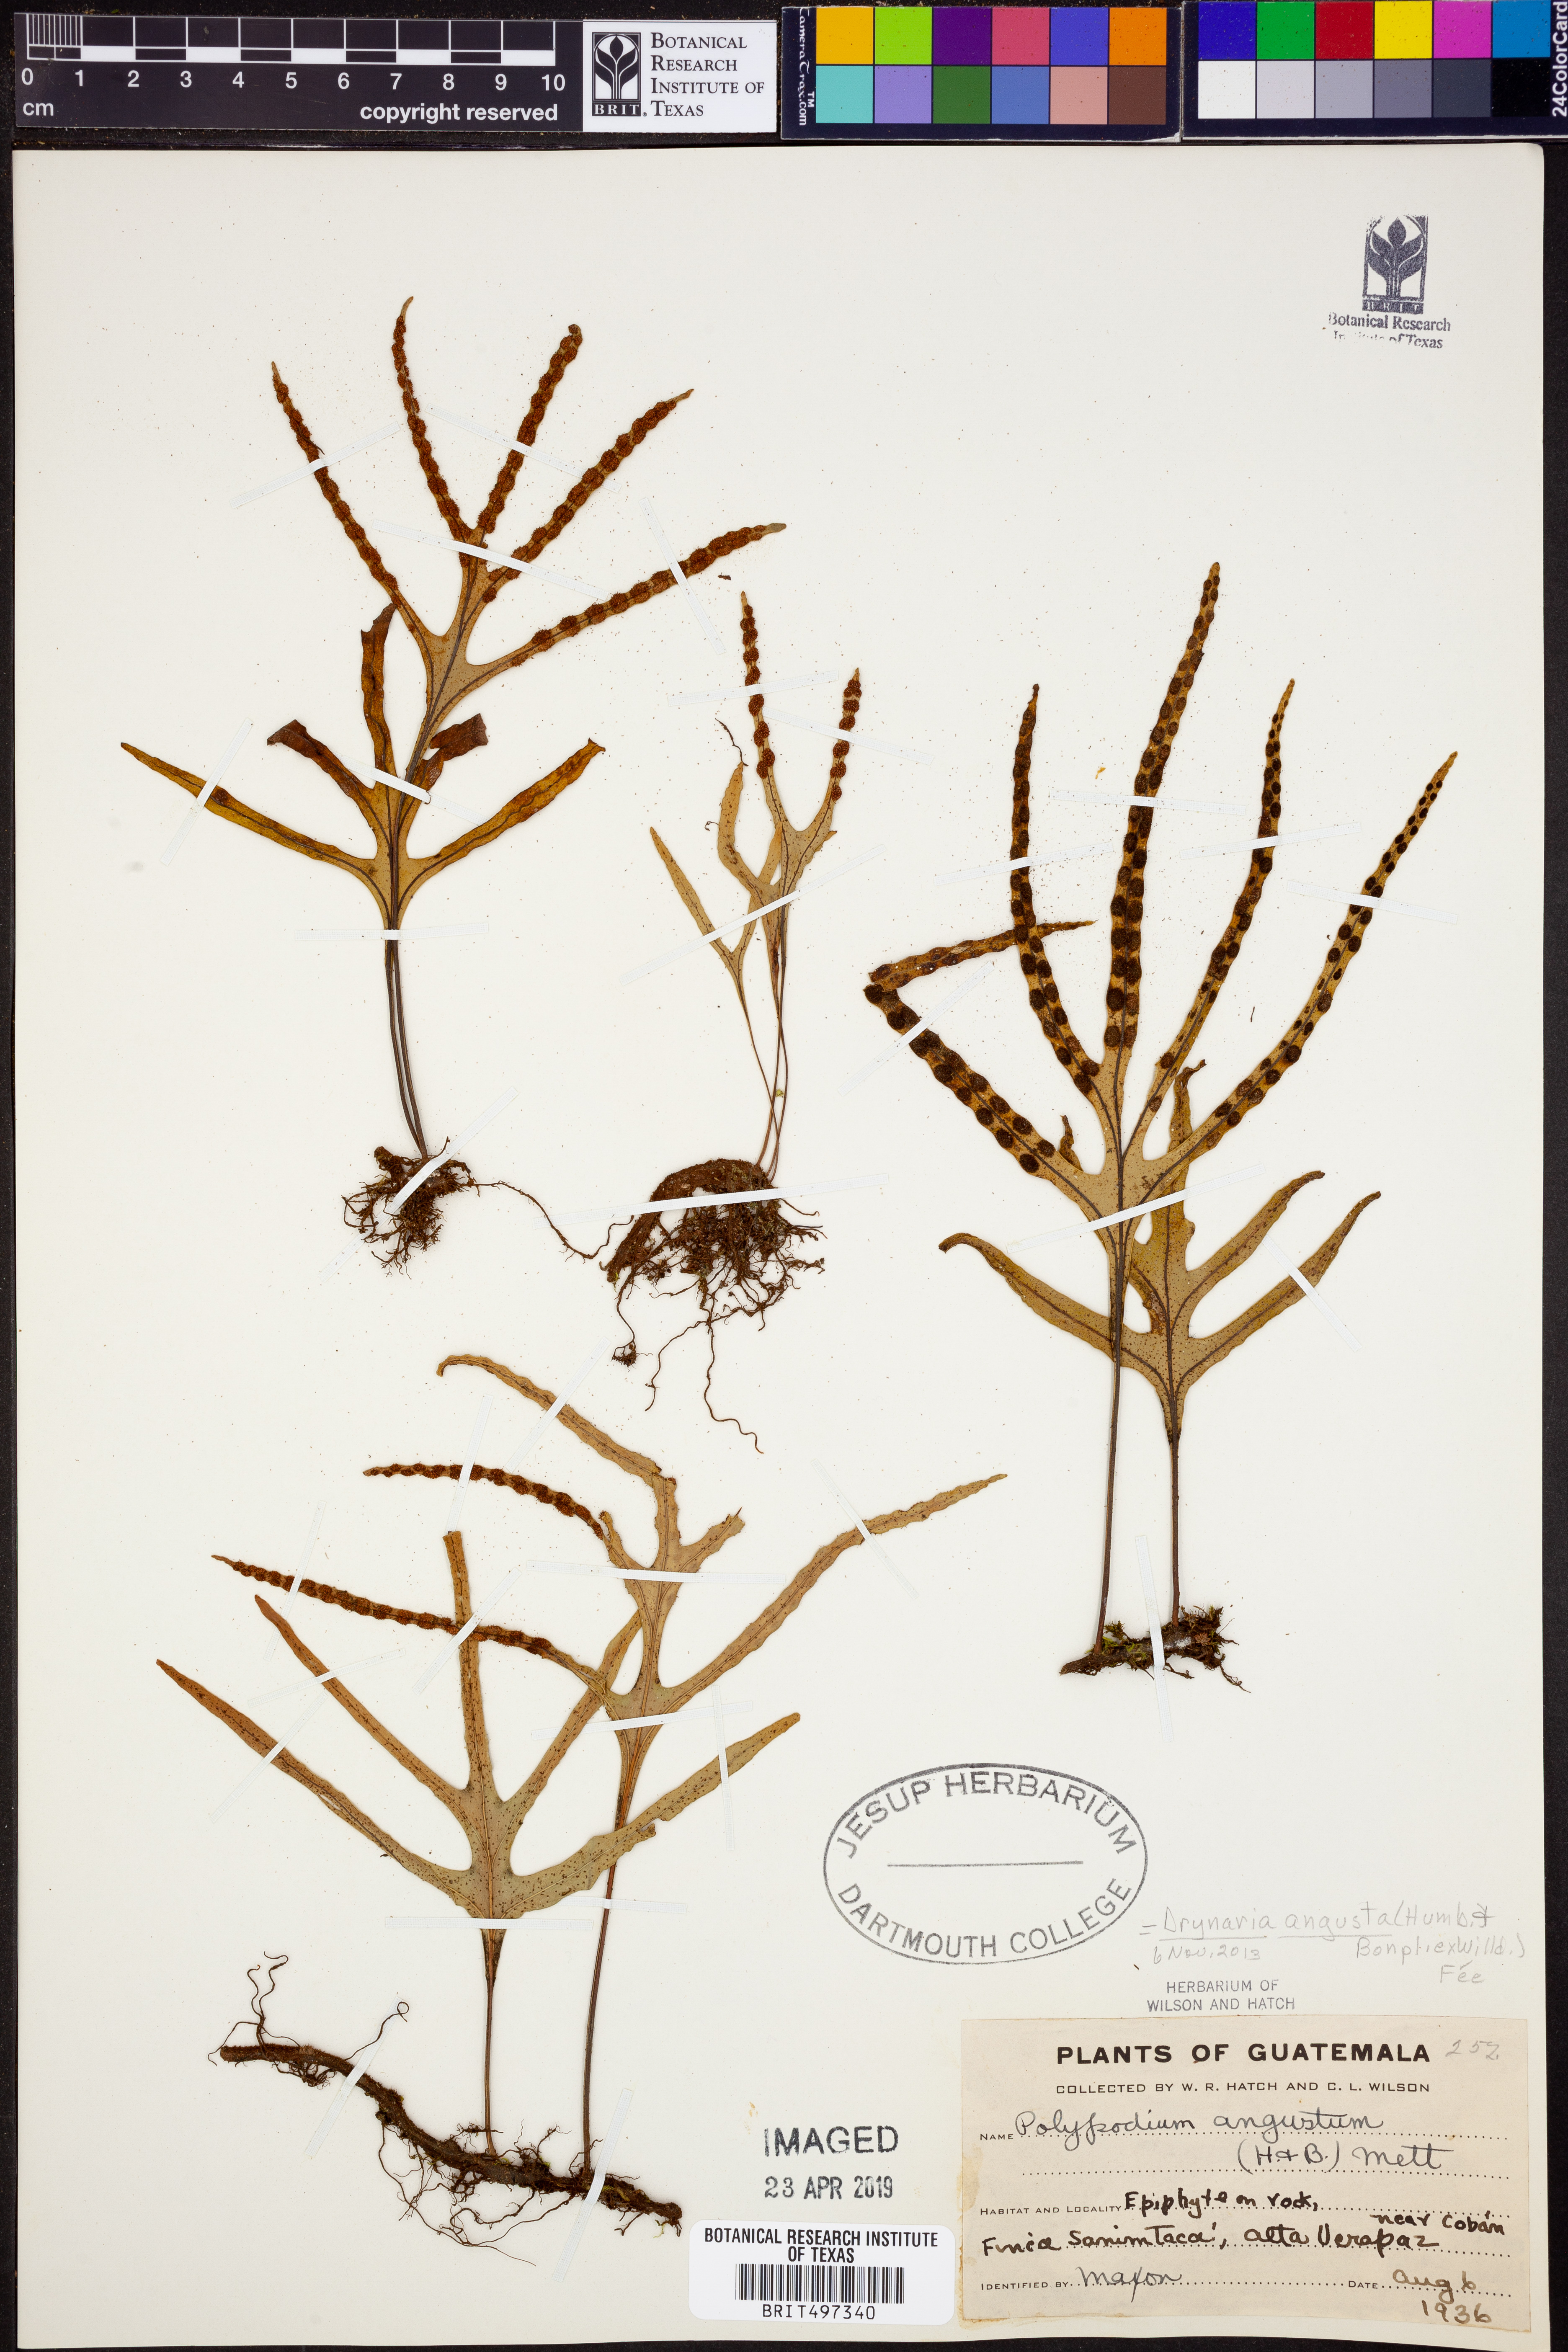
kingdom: Plantae
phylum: Tracheophyta
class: Polypodiopsida
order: Polypodiales
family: Polypodiaceae
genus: Pleopeltis
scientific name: Pleopeltis angusta
